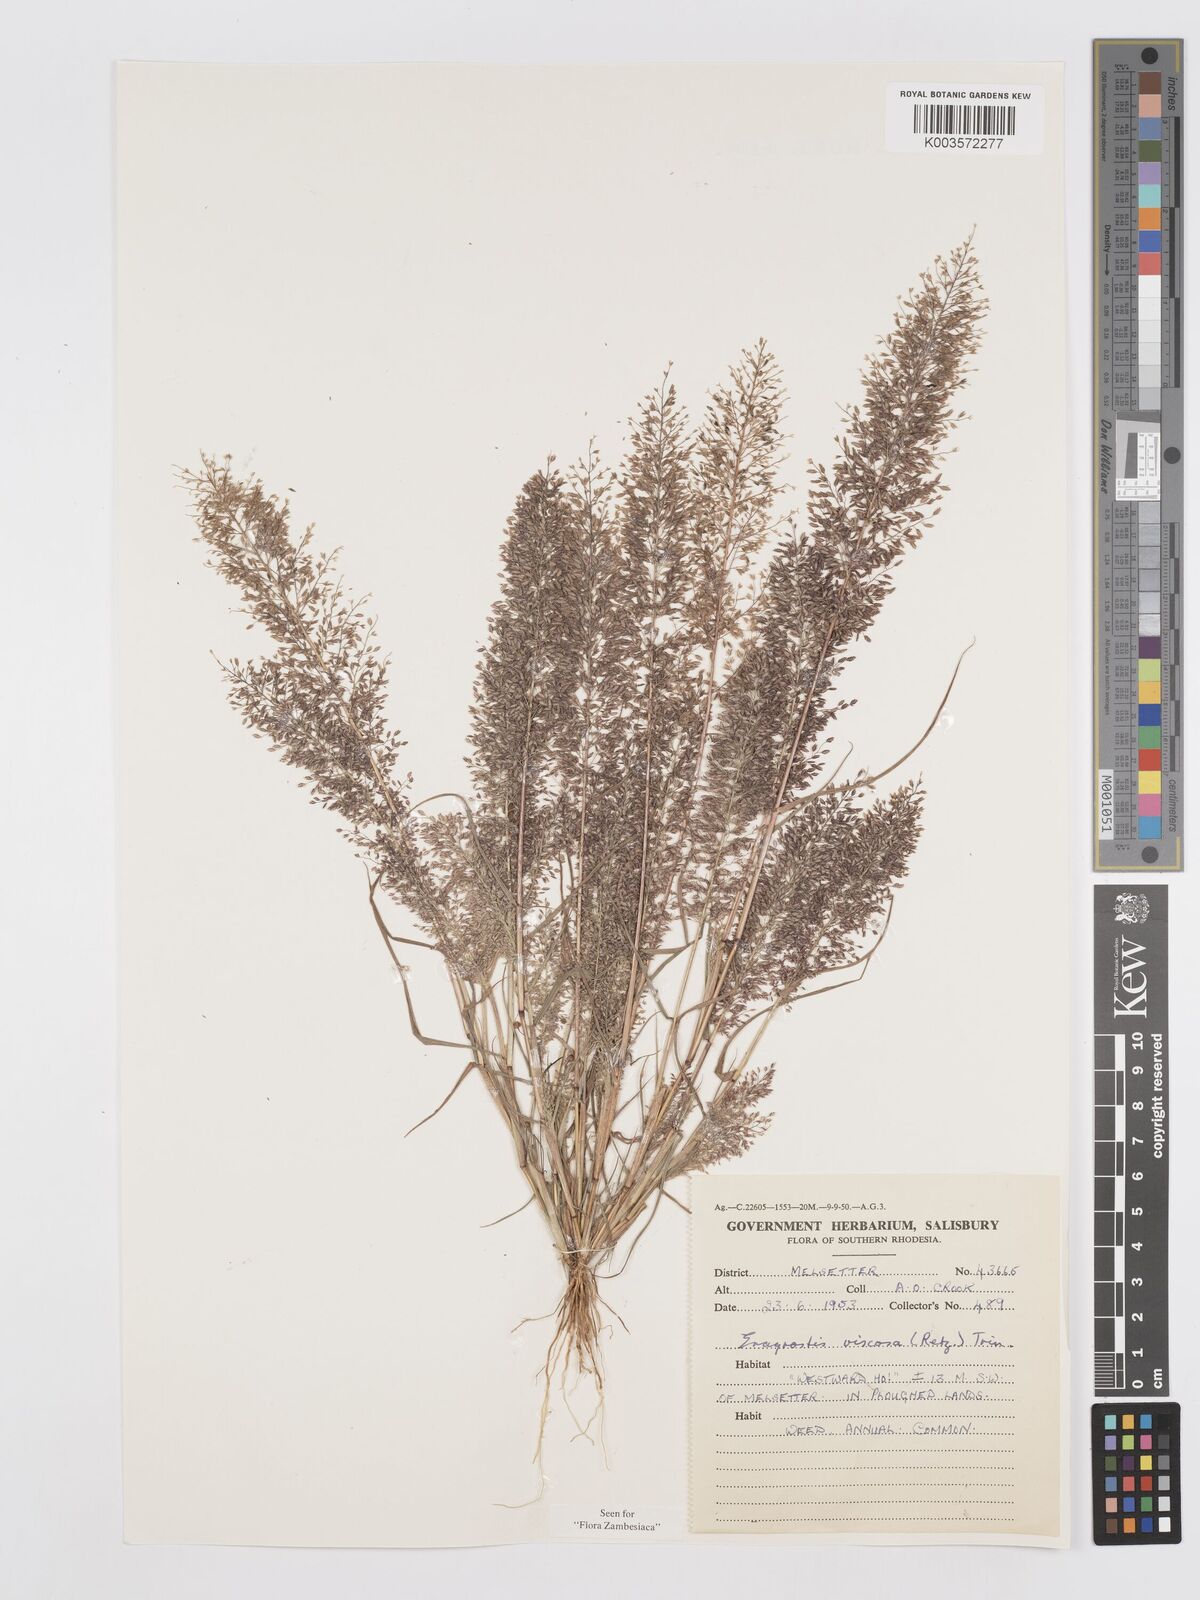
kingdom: Plantae
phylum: Tracheophyta
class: Liliopsida
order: Poales
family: Poaceae
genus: Eragrostis
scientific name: Eragrostis
